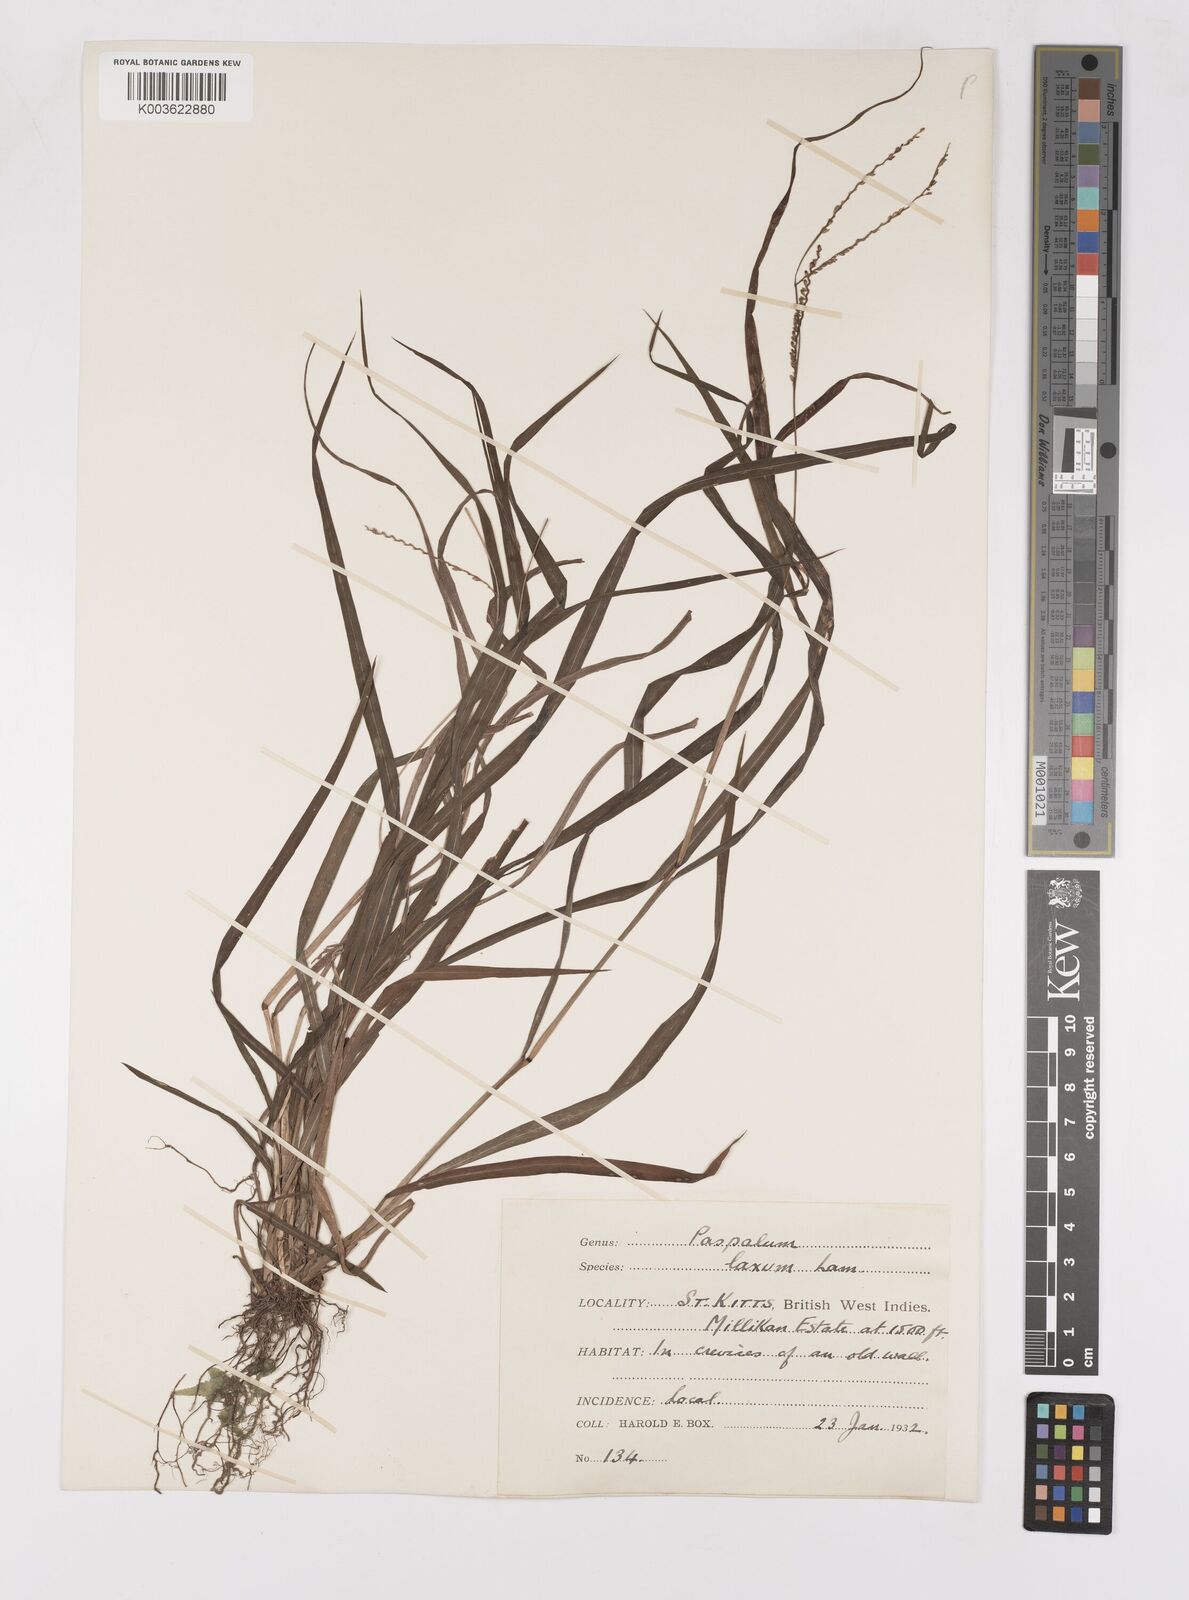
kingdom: Plantae
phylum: Tracheophyta
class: Liliopsida
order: Poales
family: Poaceae
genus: Paspalum
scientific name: Paspalum laxum
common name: Coconut paspalum
